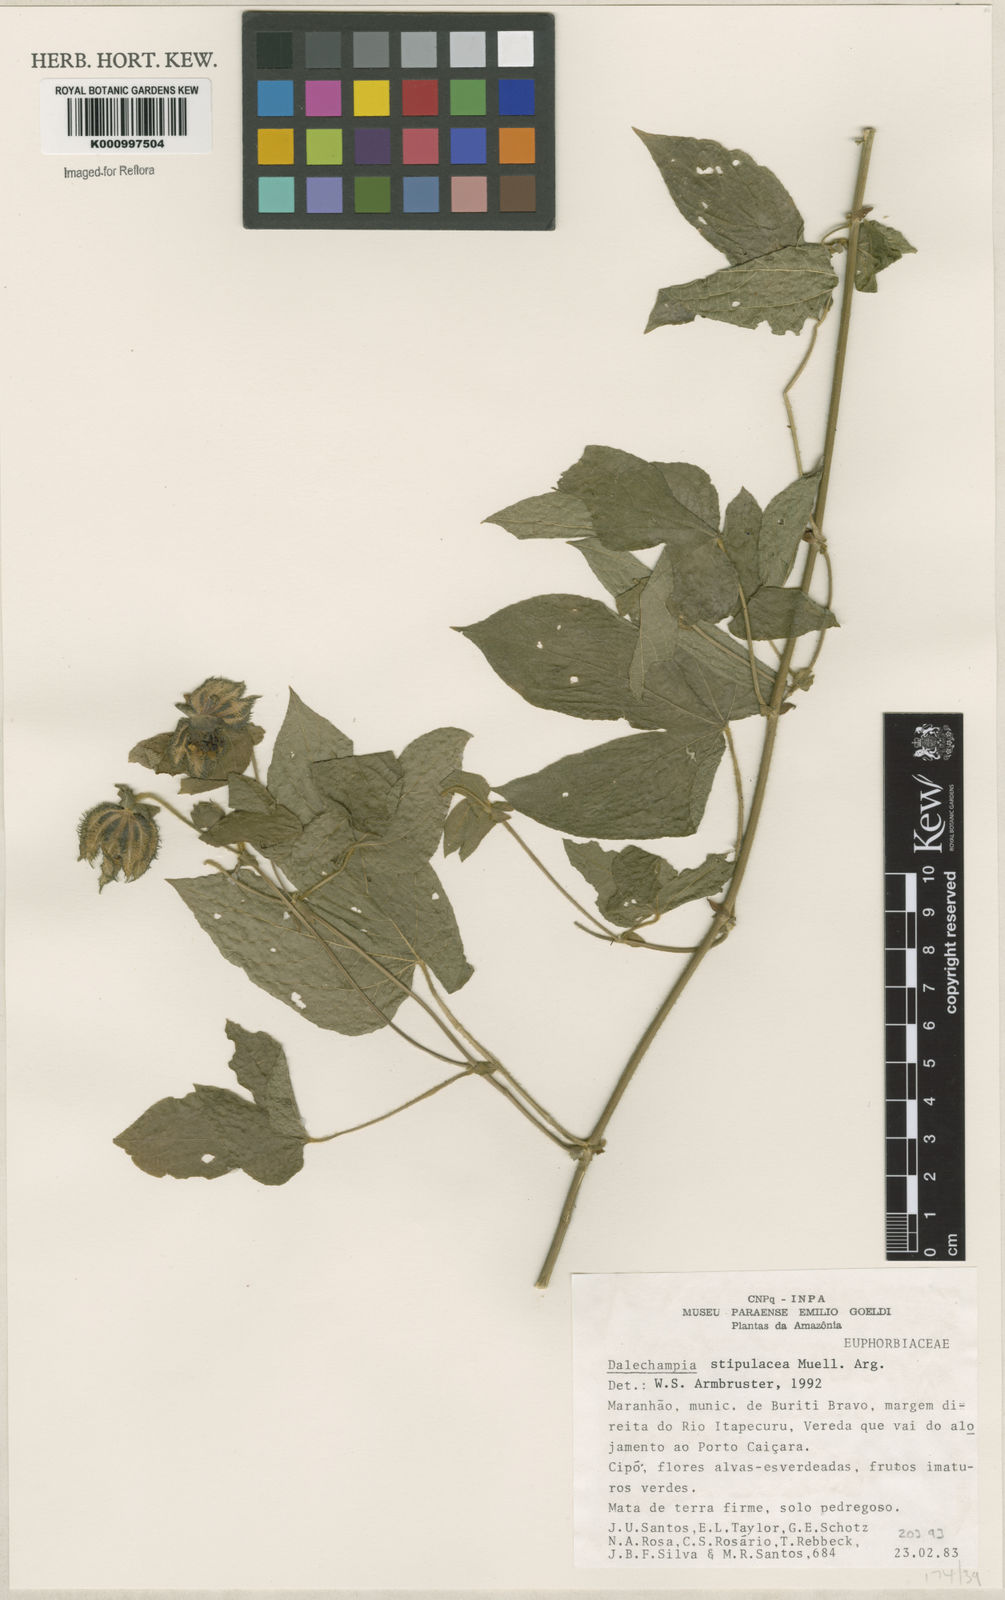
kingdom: Plantae
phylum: Tracheophyta
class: Magnoliopsida
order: Malpighiales
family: Euphorbiaceae
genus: Dalechampia
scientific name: Dalechampia
